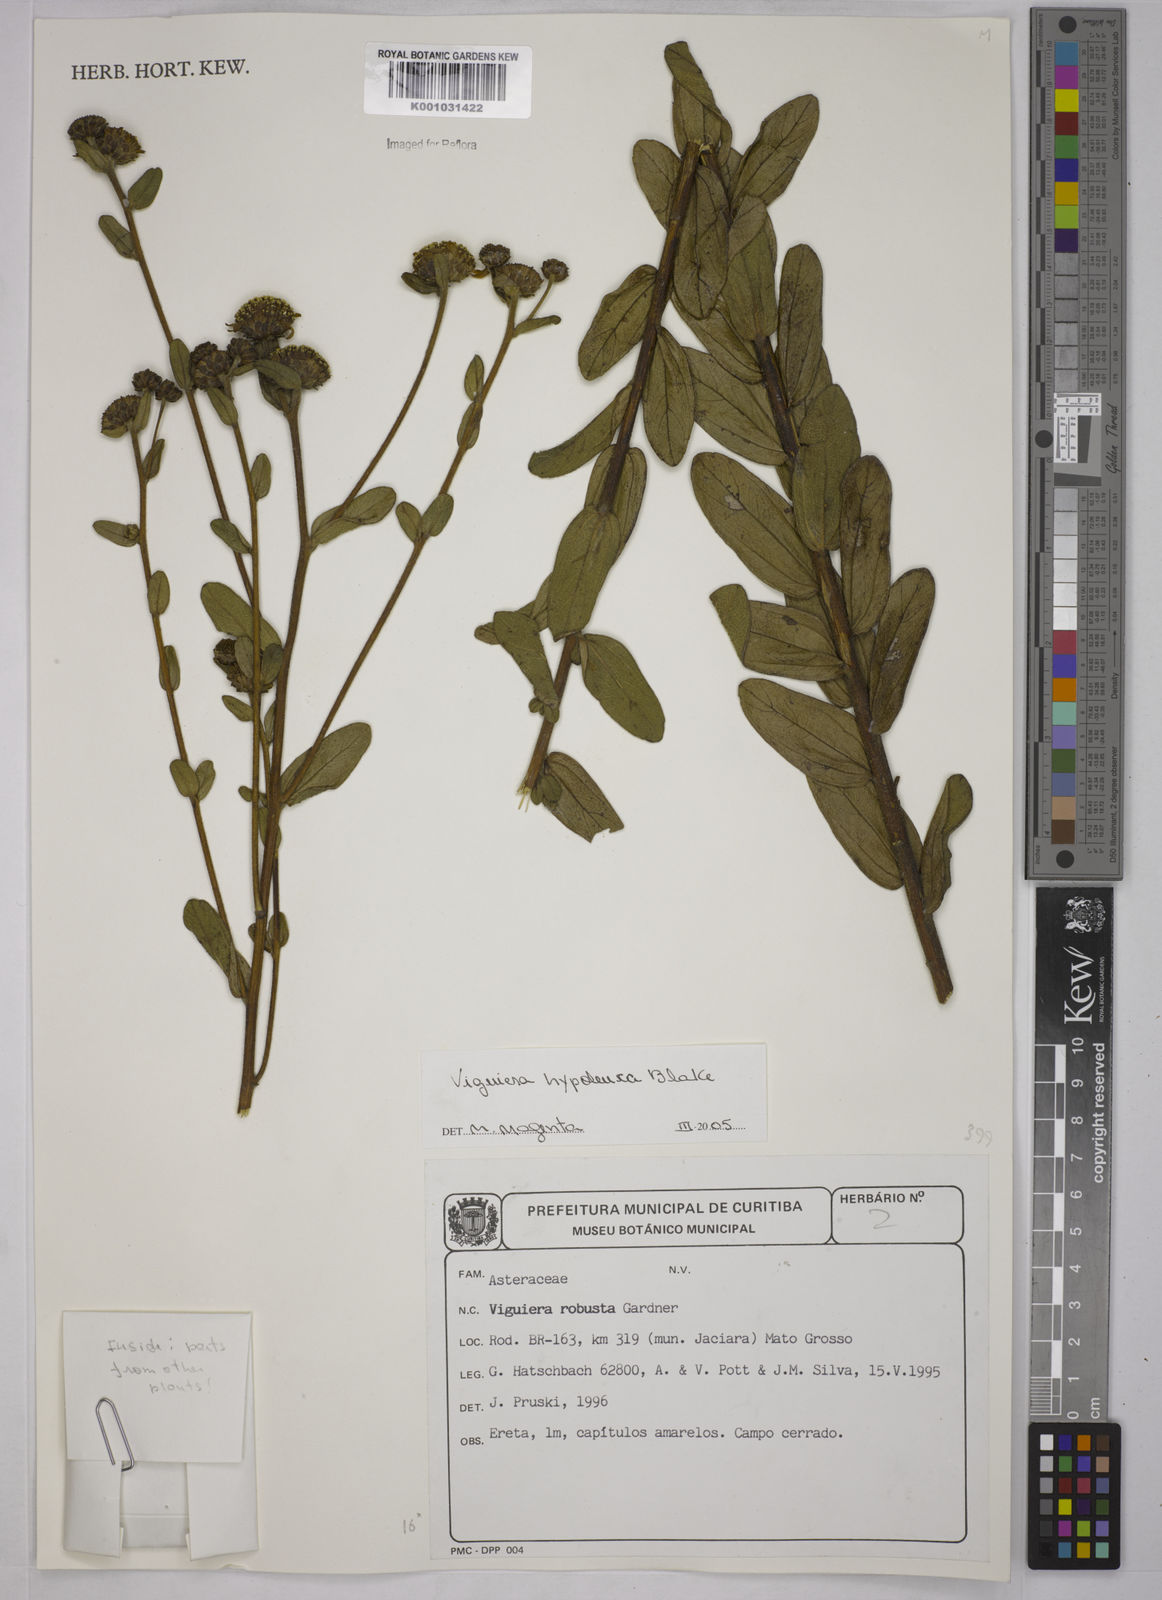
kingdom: Plantae
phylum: Tracheophyta
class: Magnoliopsida
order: Asterales
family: Asteraceae
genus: Aldama
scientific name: Aldama hypoleuca
